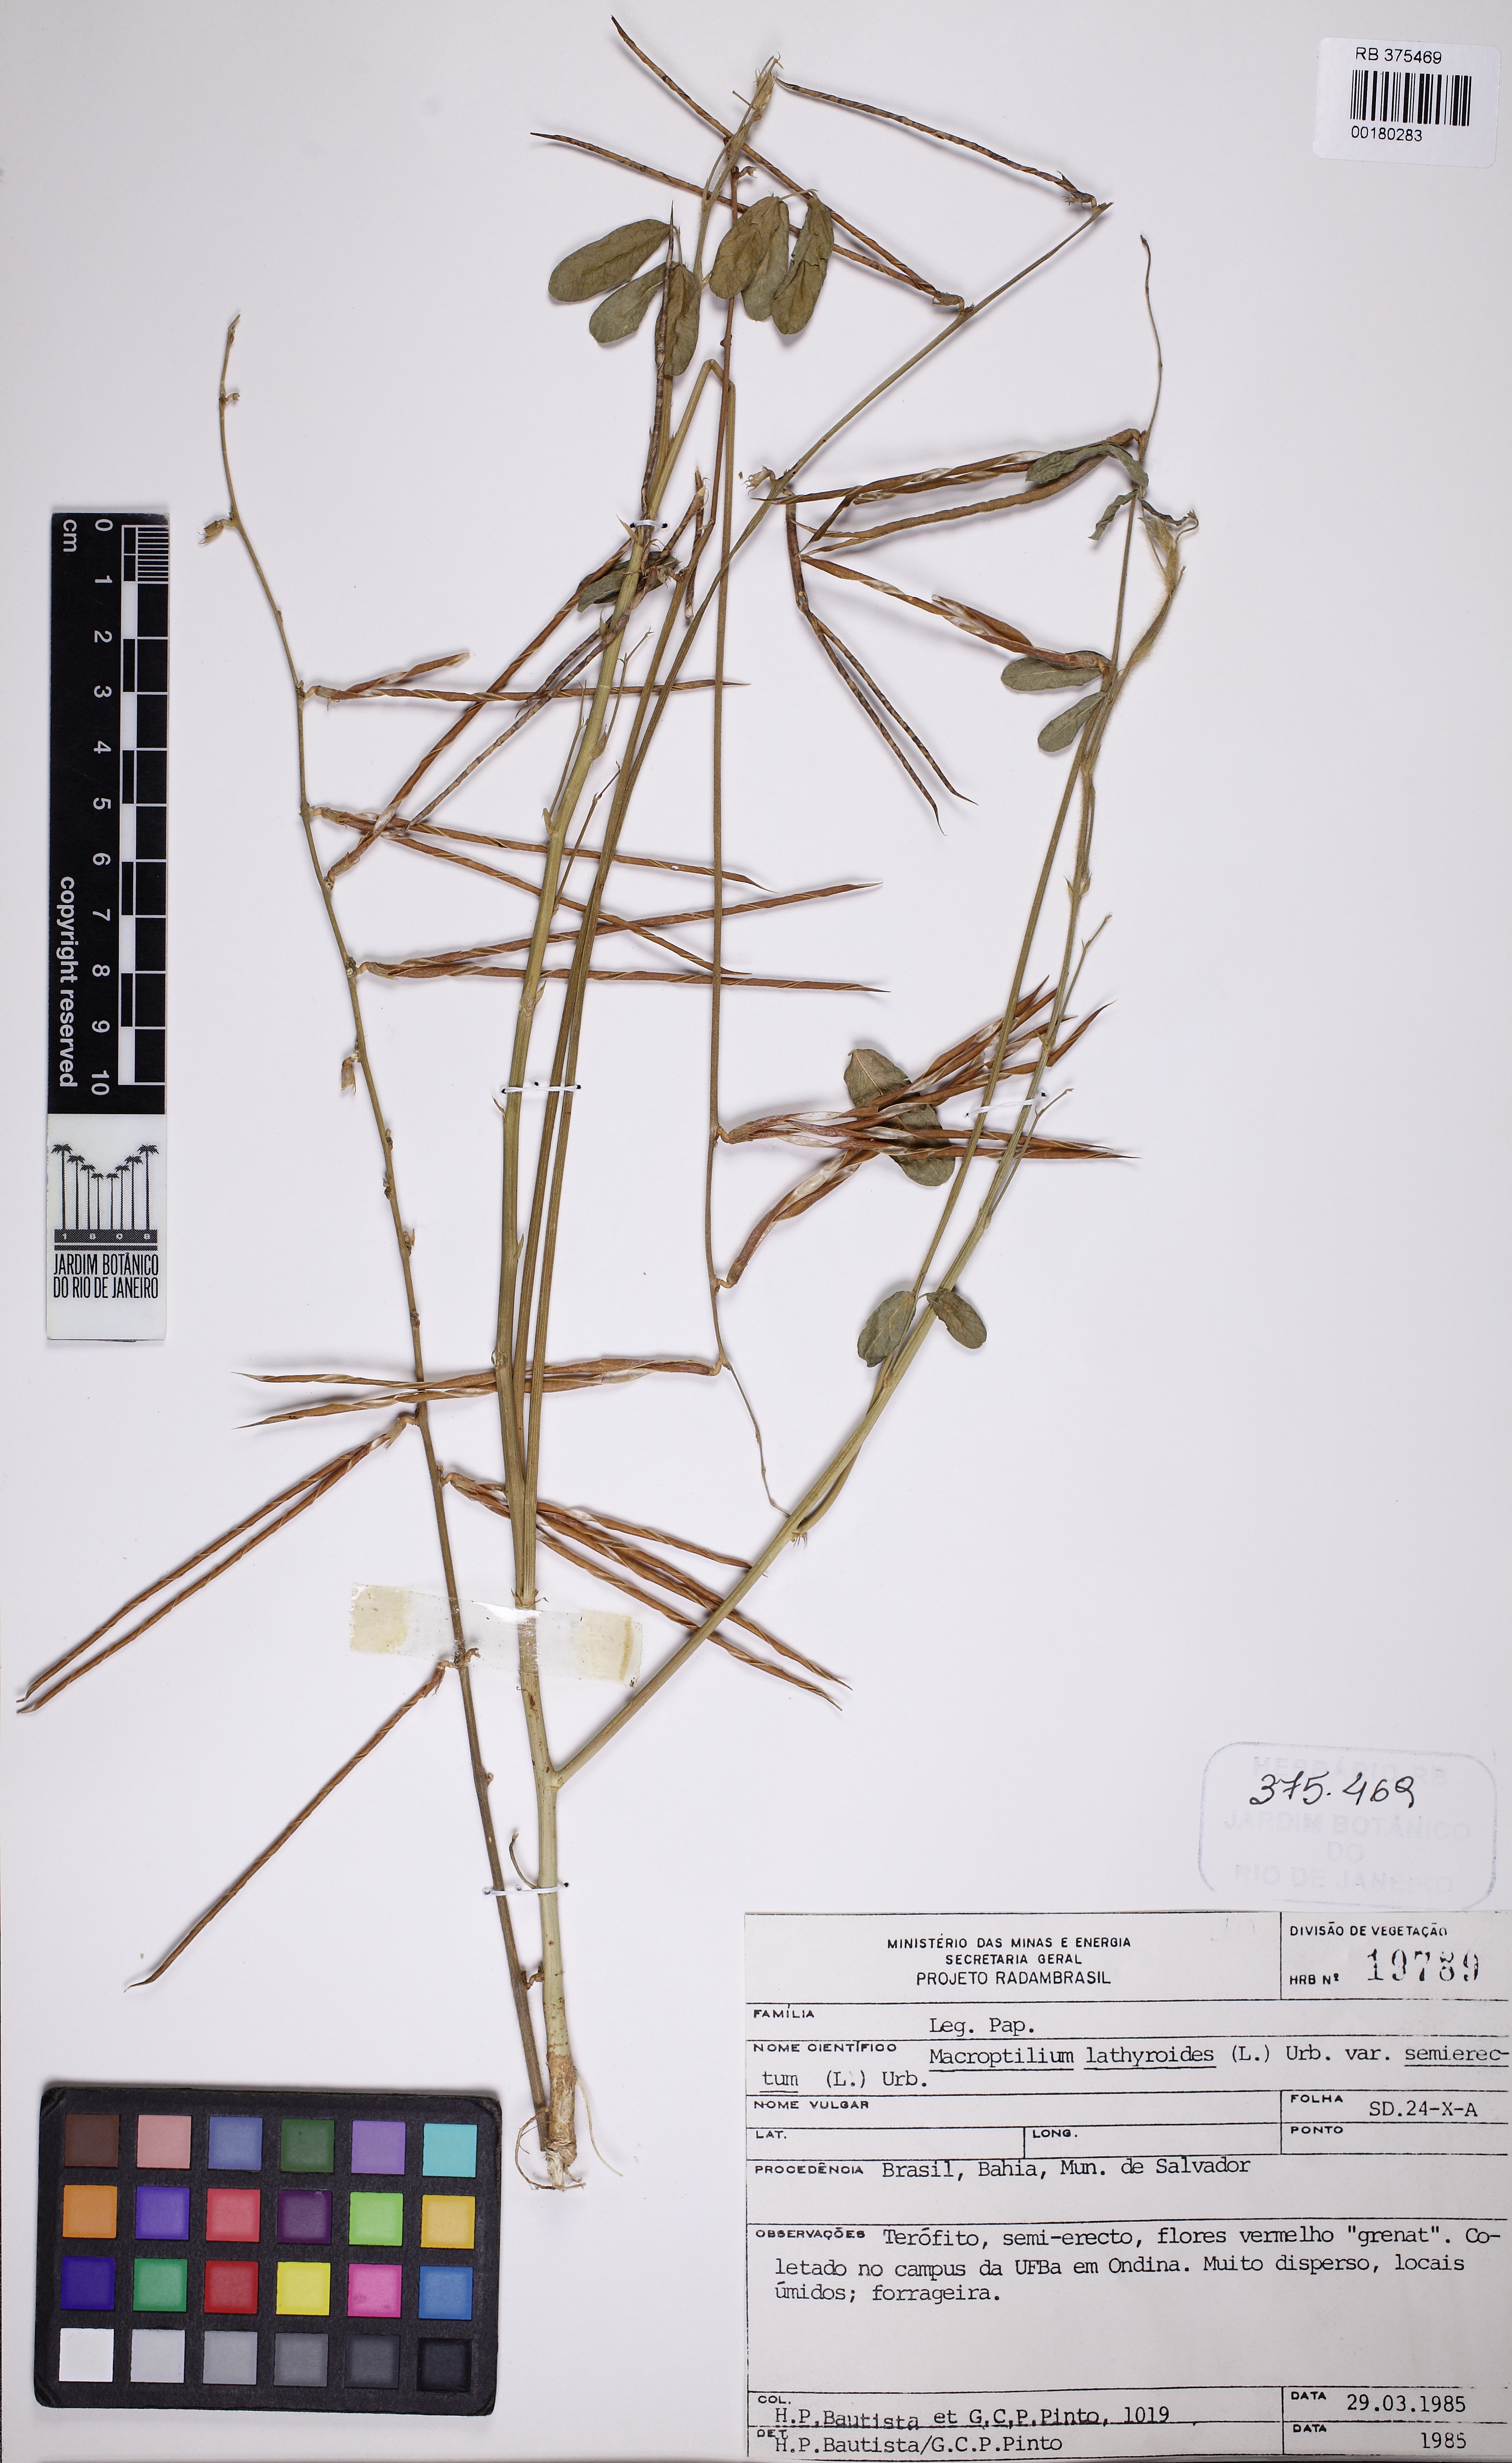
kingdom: Plantae
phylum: Tracheophyta
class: Magnoliopsida
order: Fabales
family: Fabaceae
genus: Macroptilium
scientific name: Macroptilium lathyroides
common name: Wild bushbean
